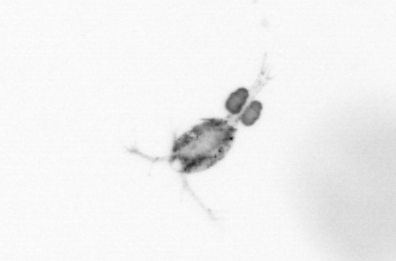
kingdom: Animalia
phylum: Arthropoda
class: Copepoda
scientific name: Copepoda
